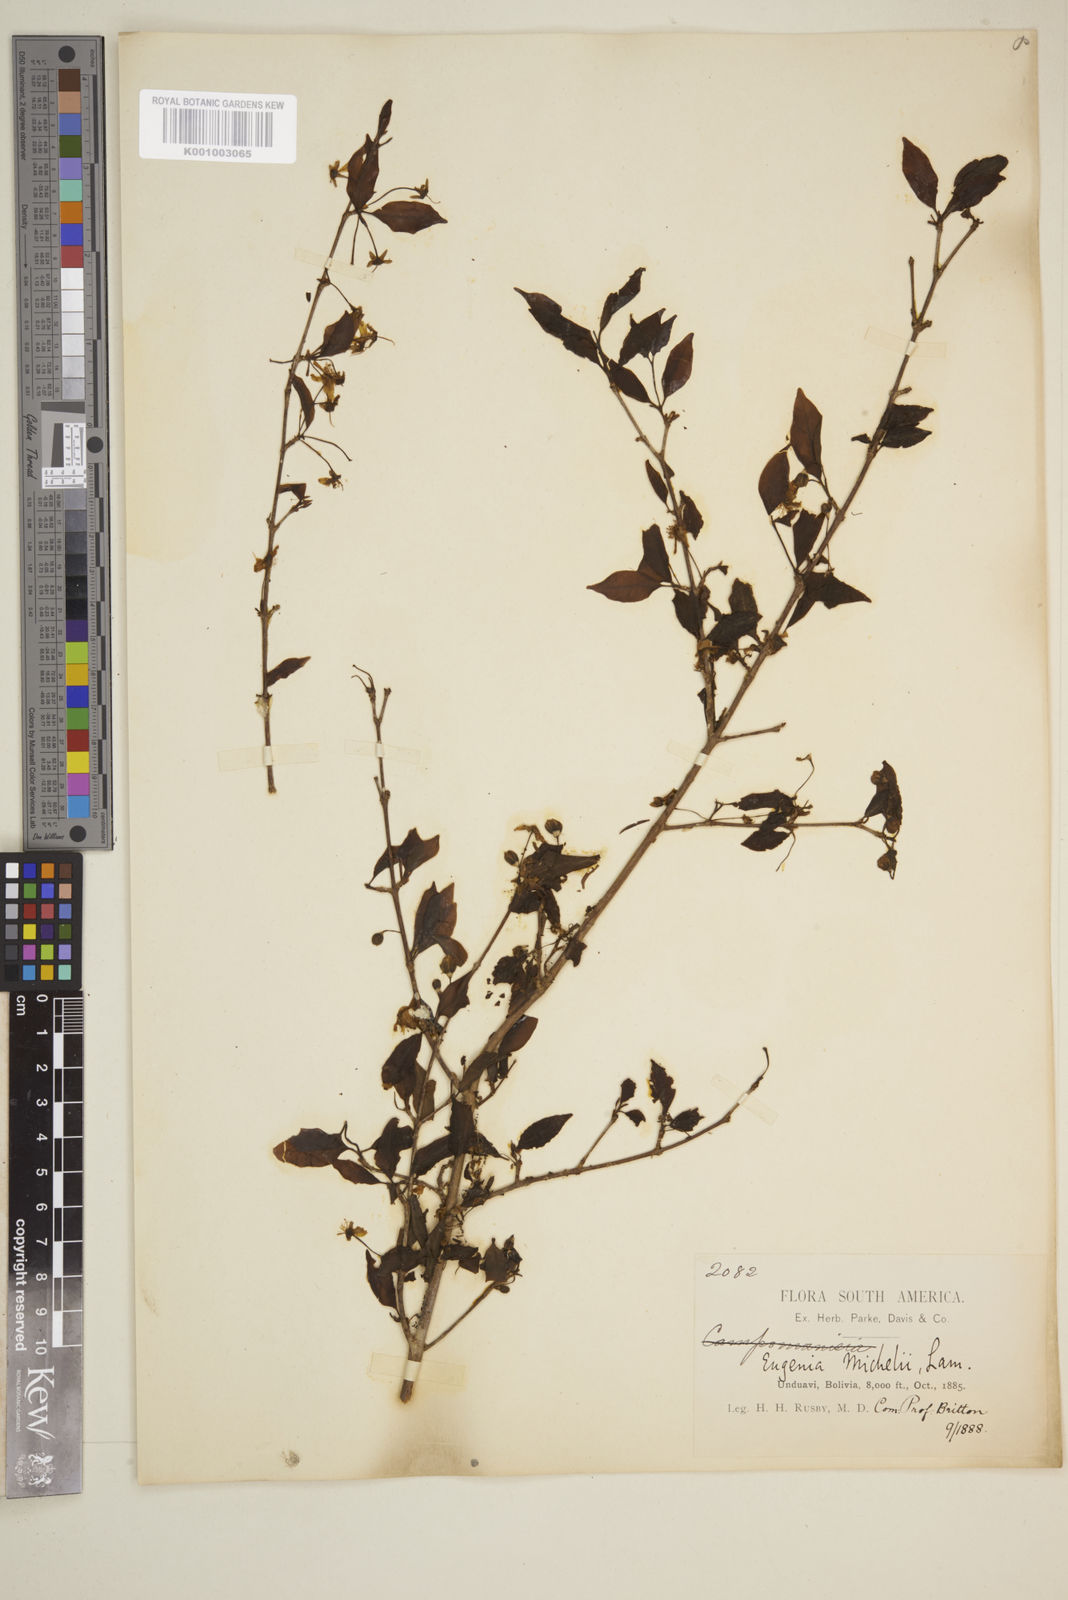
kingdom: Plantae
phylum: Tracheophyta
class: Magnoliopsida
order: Myrtales
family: Myrtaceae
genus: Eugenia
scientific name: Eugenia uniflora
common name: Surinam cherry
